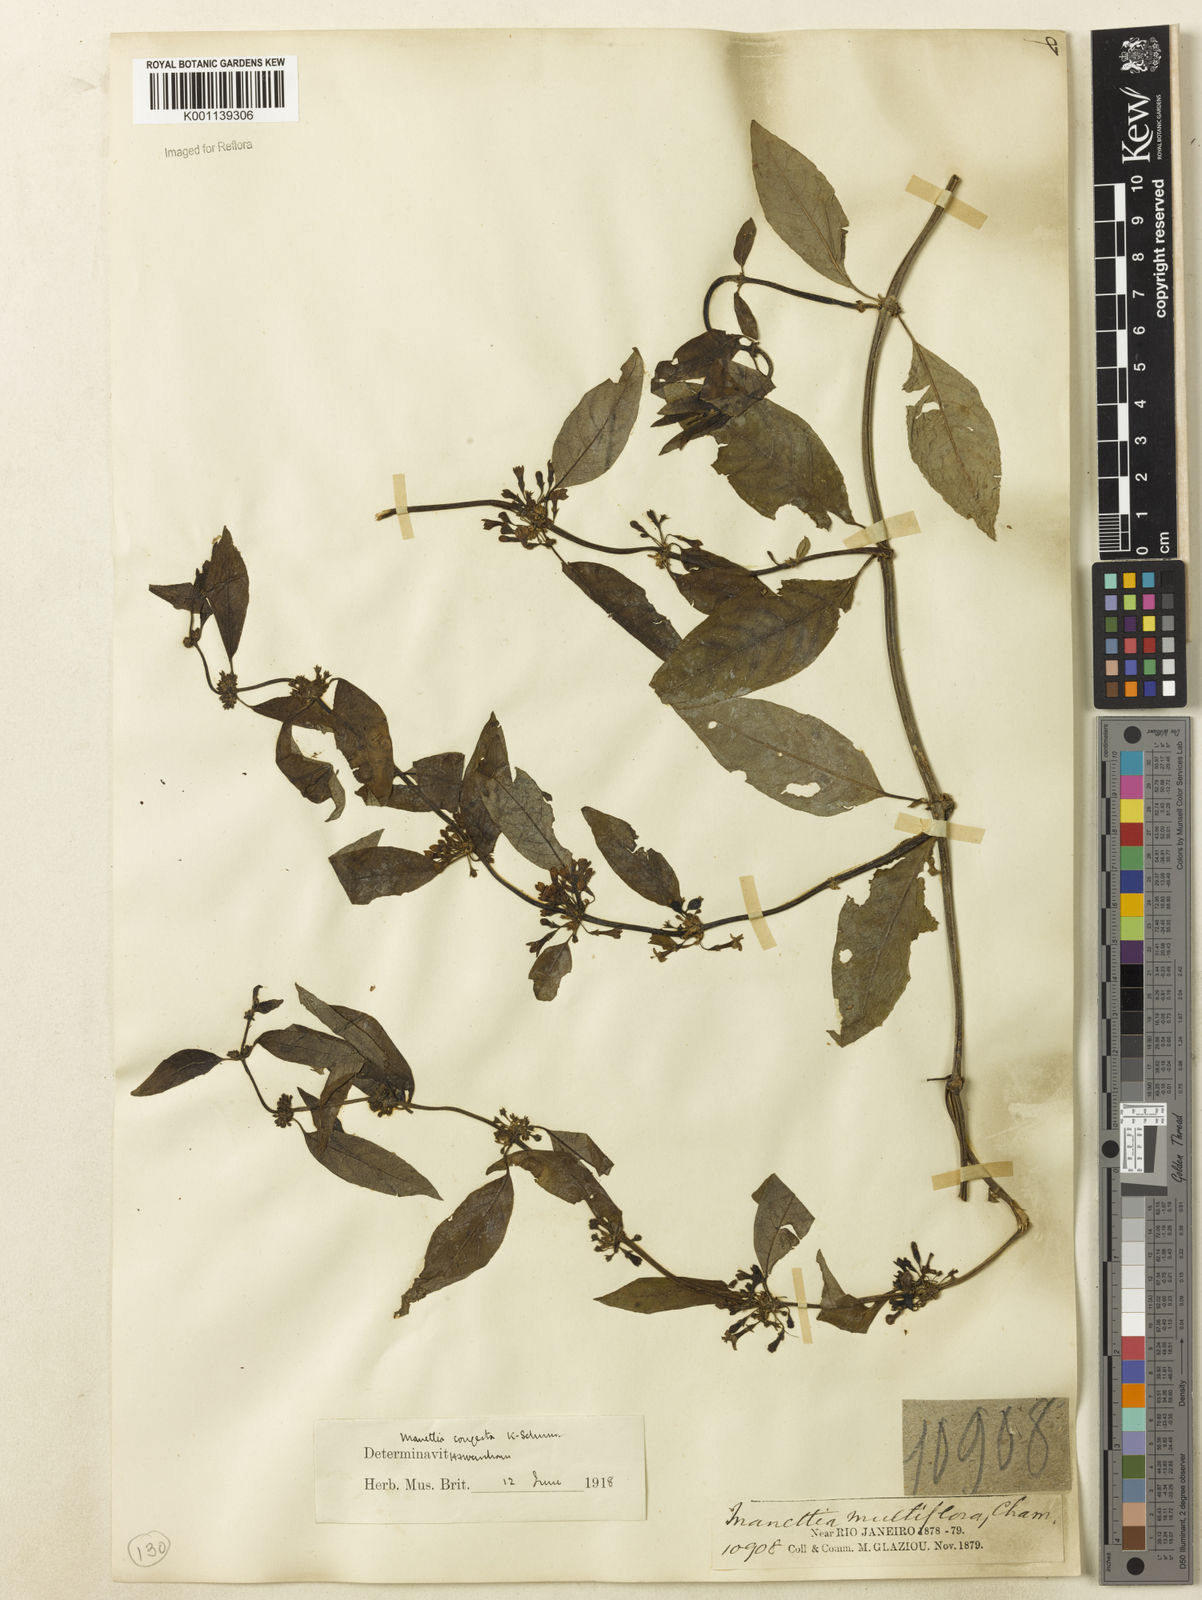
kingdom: Plantae
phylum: Tracheophyta
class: Magnoliopsida
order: Gentianales
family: Rubiaceae
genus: Manettia
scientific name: Manettia congesta
